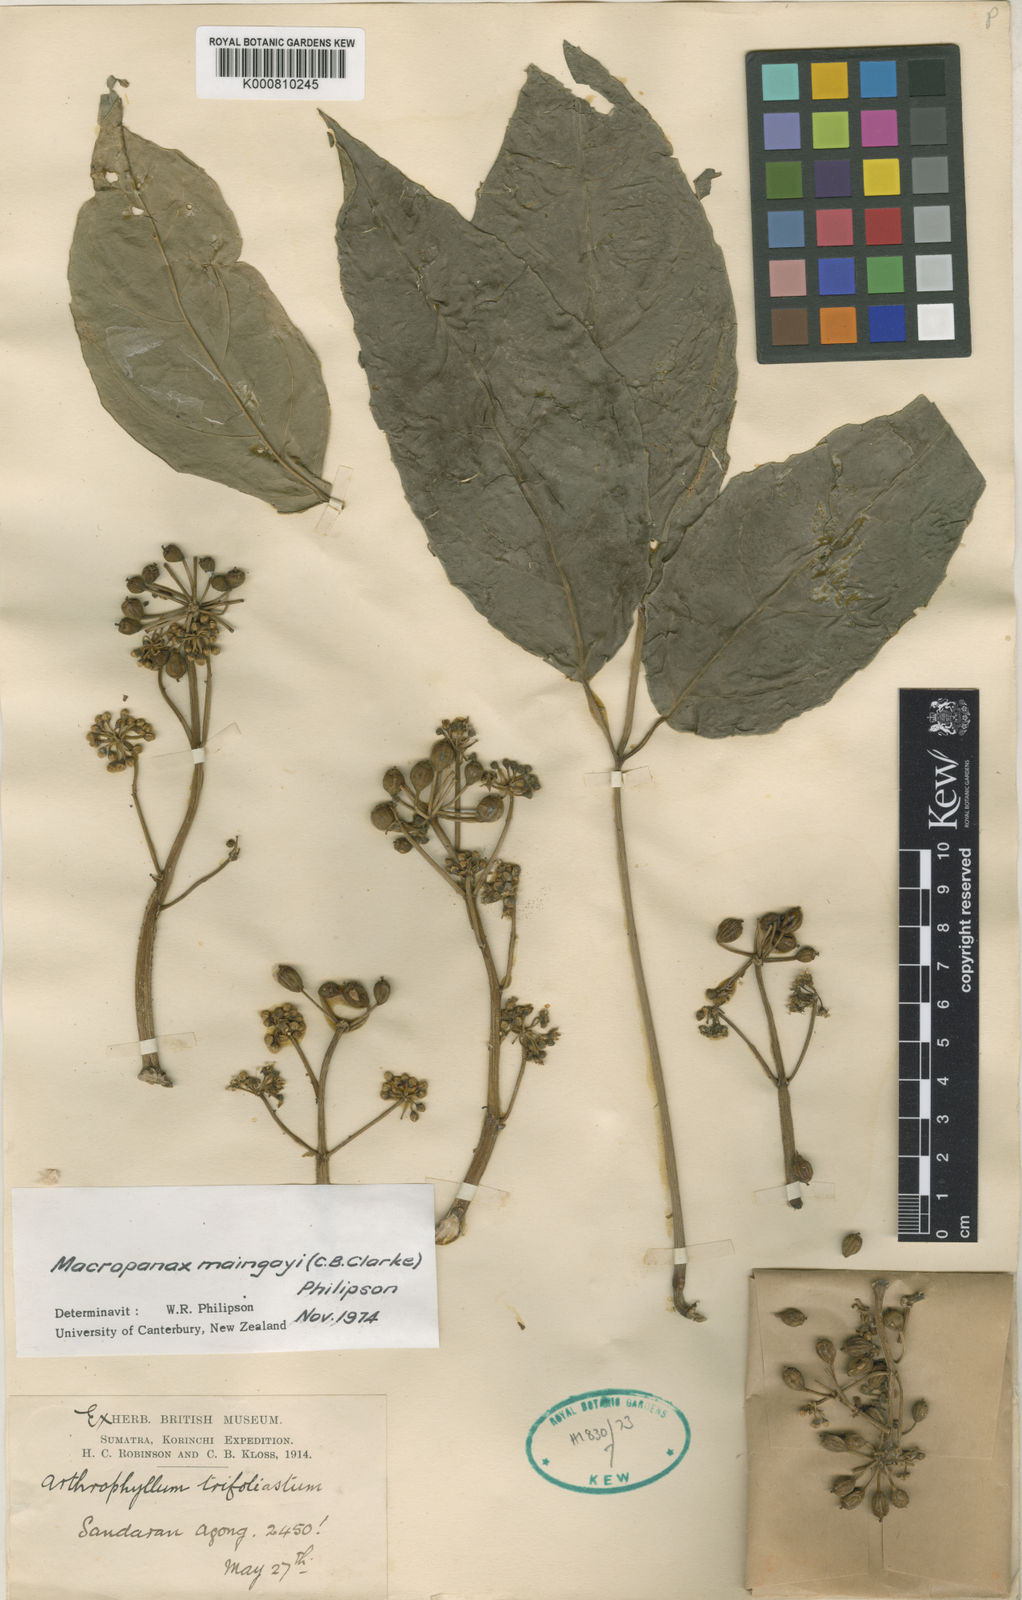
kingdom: Plantae
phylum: Tracheophyta
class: Magnoliopsida
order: Apiales
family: Araliaceae
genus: Macropanax
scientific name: Macropanax maingayi
